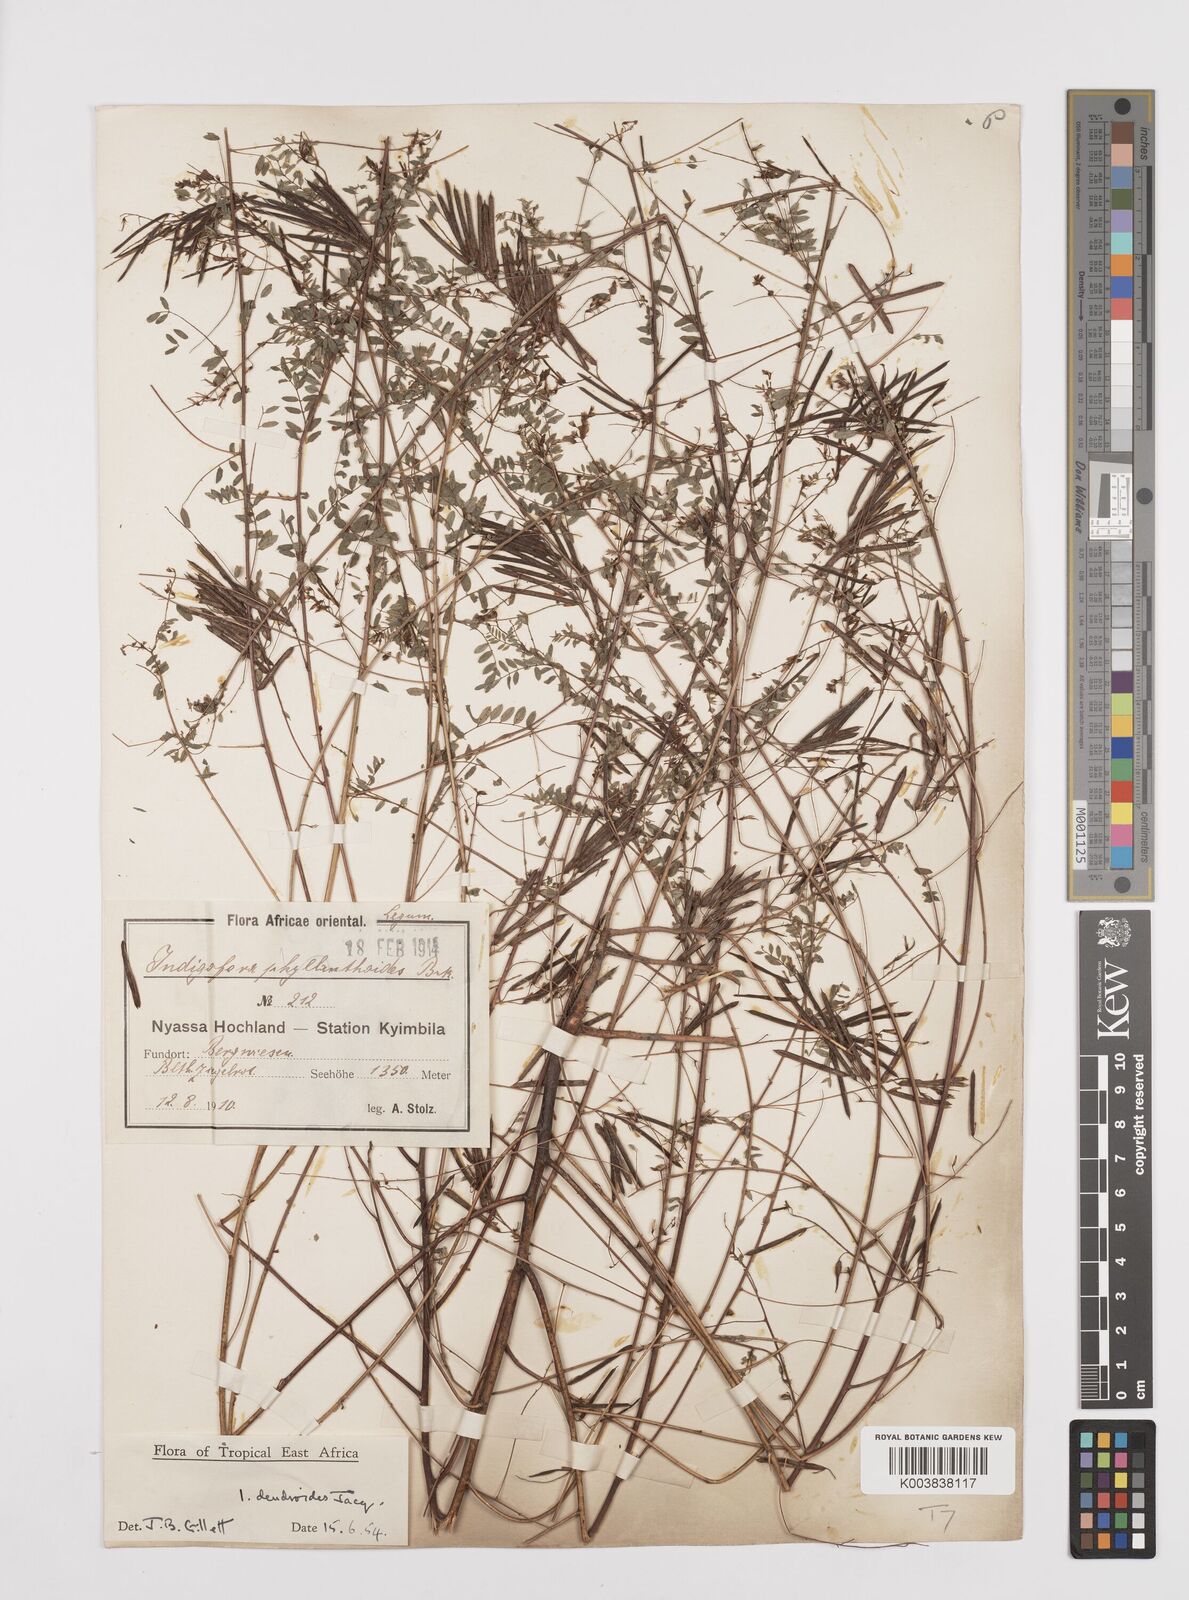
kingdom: Plantae
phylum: Tracheophyta
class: Magnoliopsida
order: Fabales
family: Fabaceae
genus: Indigofera
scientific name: Indigofera dendroides
